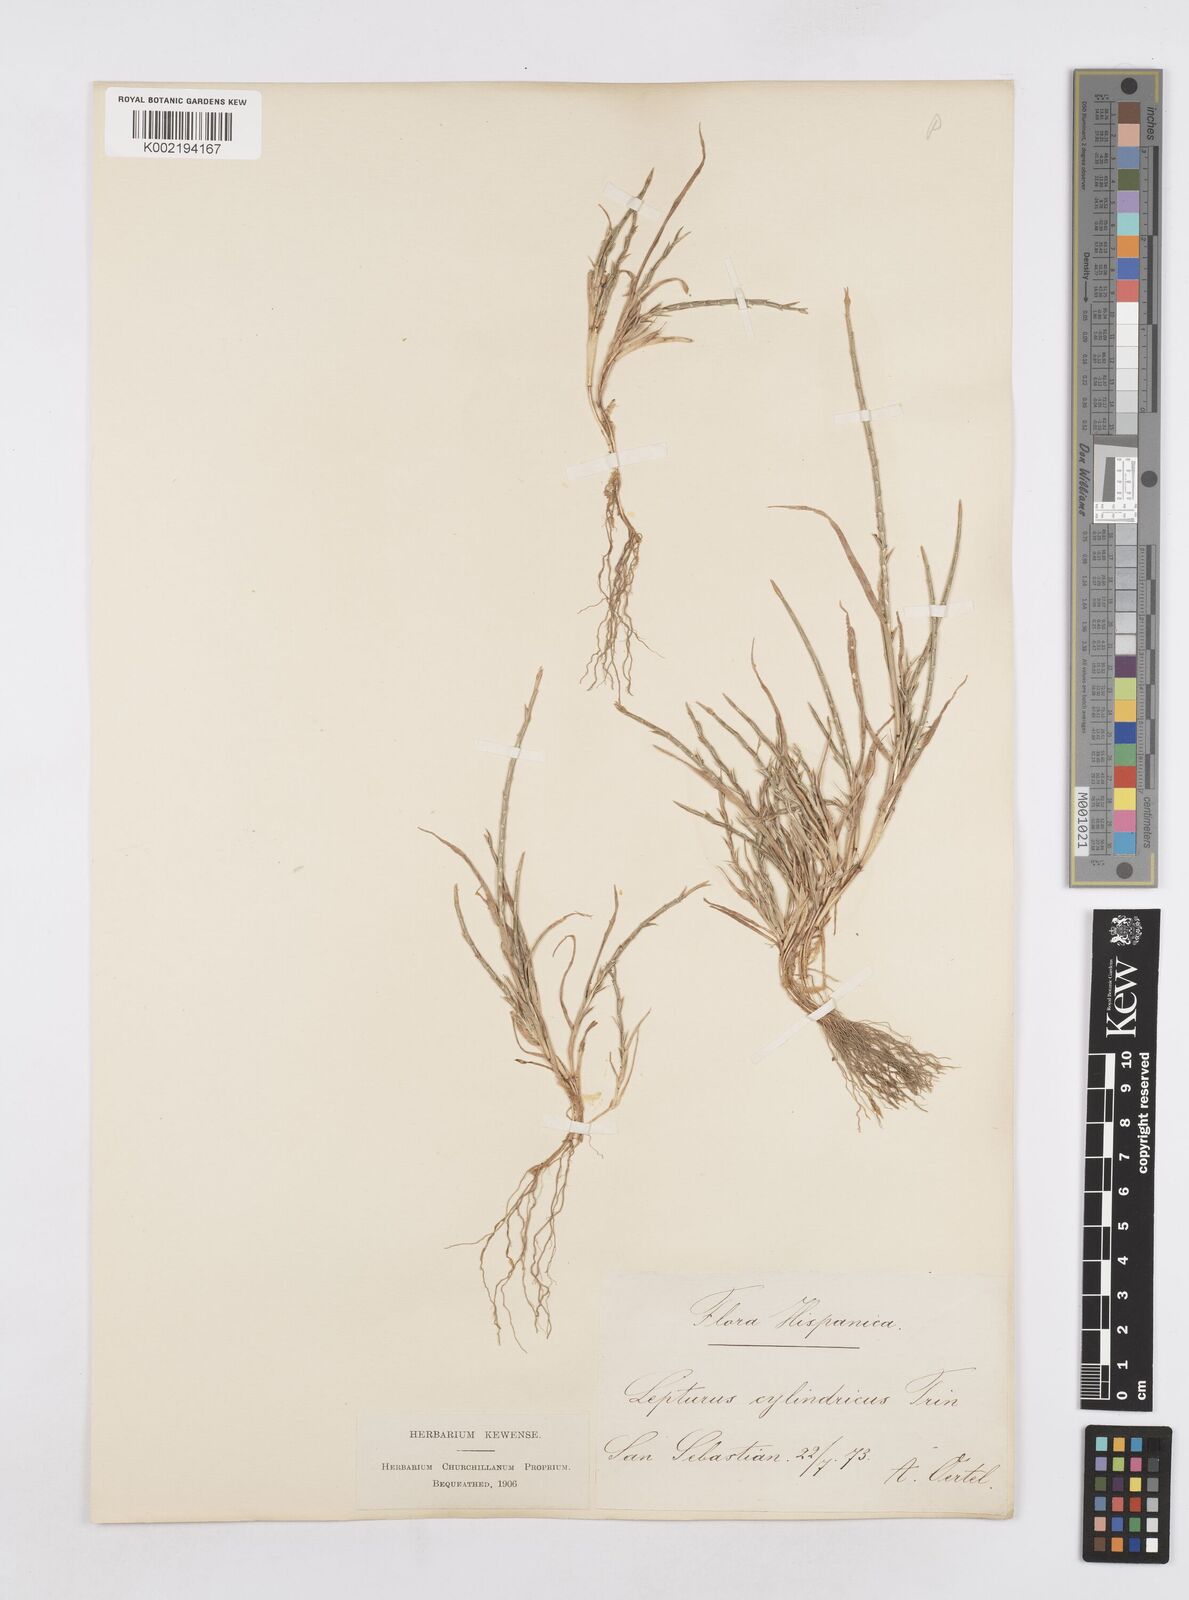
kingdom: Plantae
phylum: Tracheophyta
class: Liliopsida
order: Poales
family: Poaceae
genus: Parapholis
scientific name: Parapholis cylindrica
